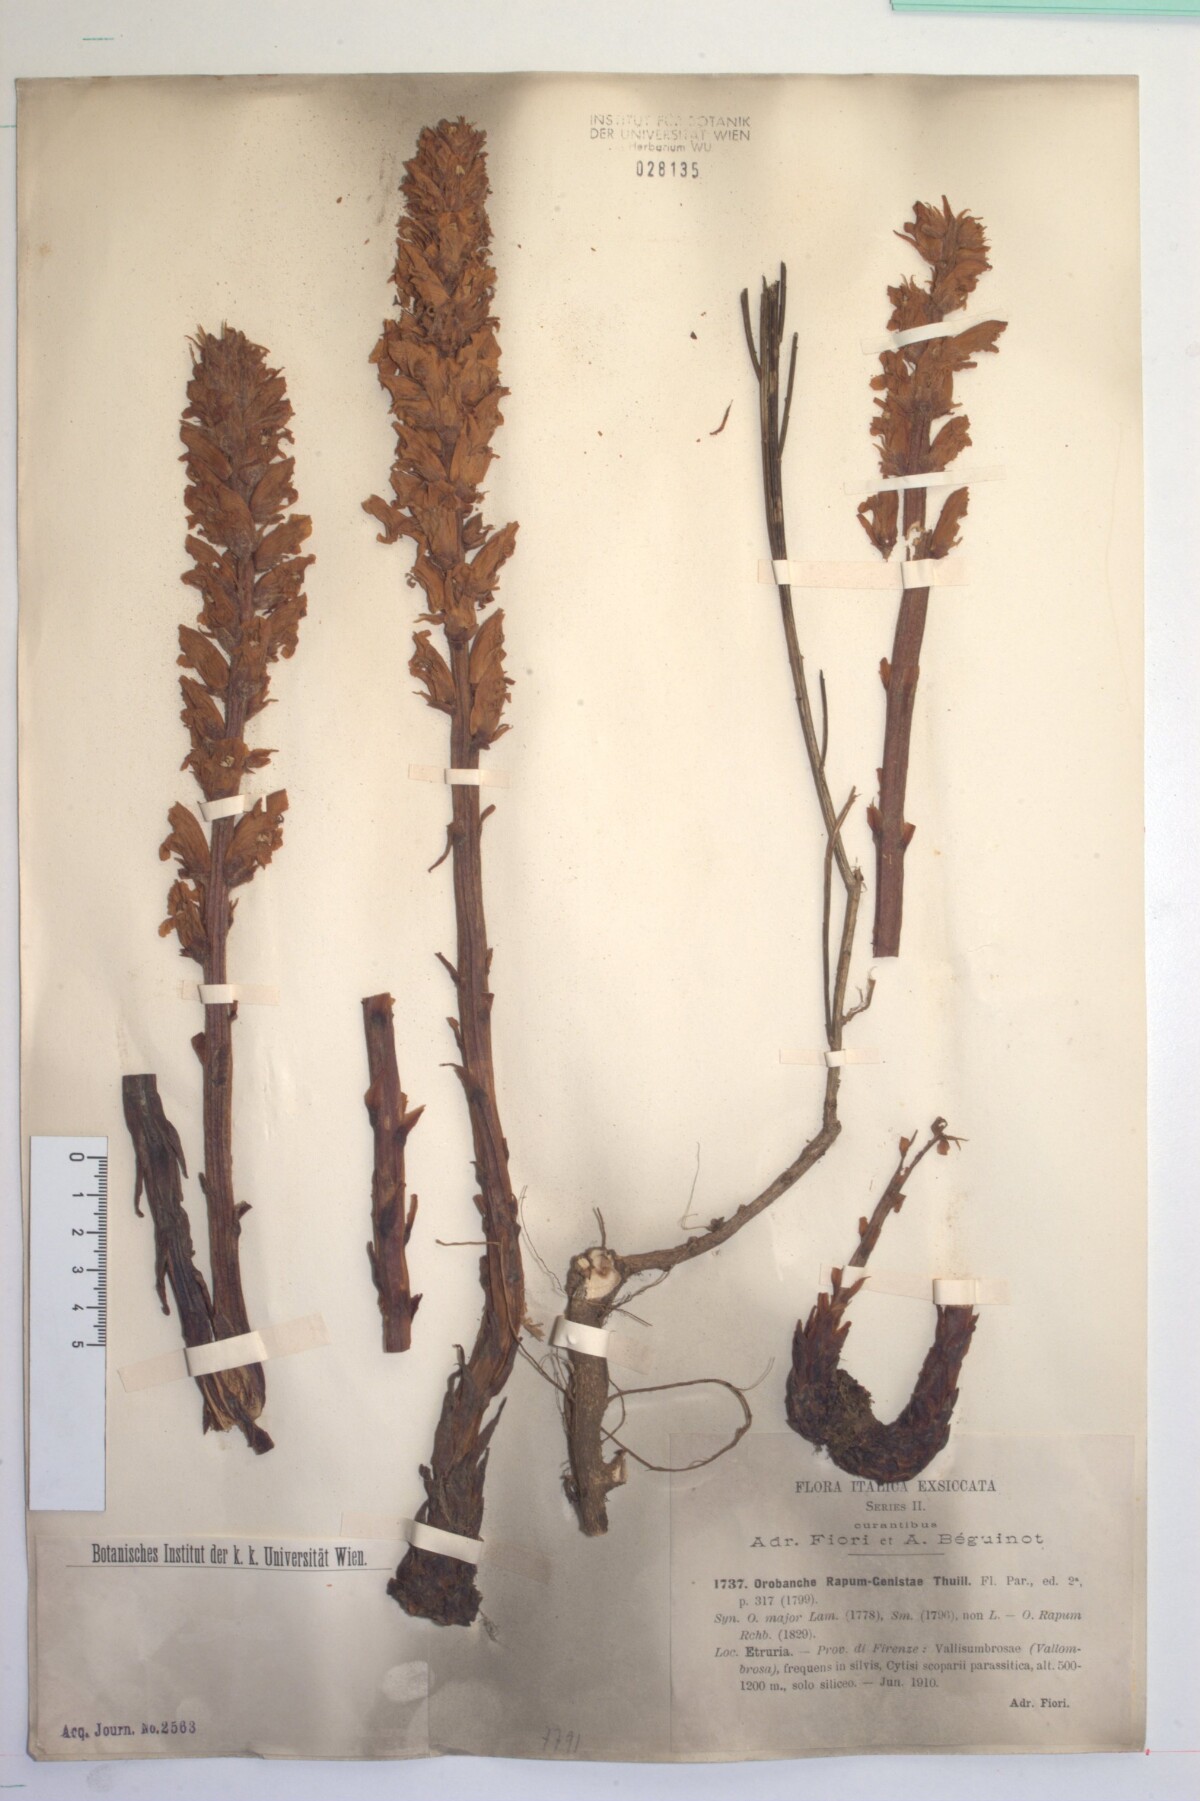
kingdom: Plantae
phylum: Tracheophyta
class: Magnoliopsida
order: Lamiales
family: Orobanchaceae
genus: Orobanche
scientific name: Orobanche rapum-genistae
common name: Greater broomrape
